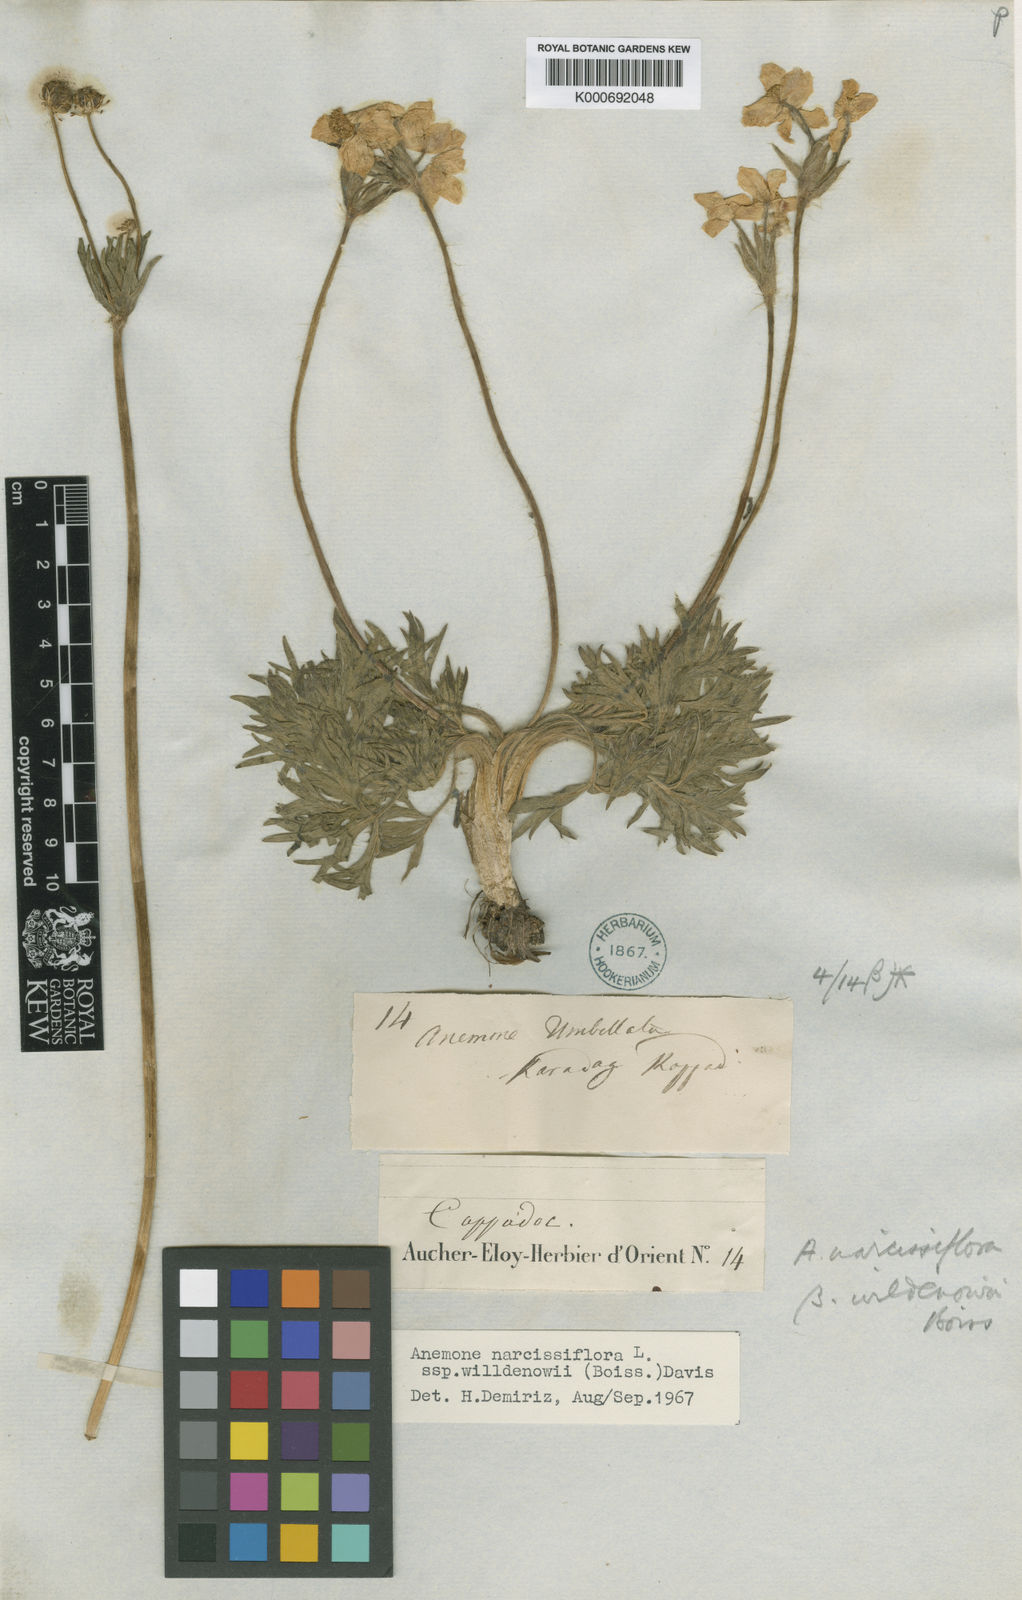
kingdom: Plantae
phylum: Tracheophyta
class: Magnoliopsida
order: Ranunculales
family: Ranunculaceae
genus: Anemonastrum
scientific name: Anemonastrum narcissiflorum
